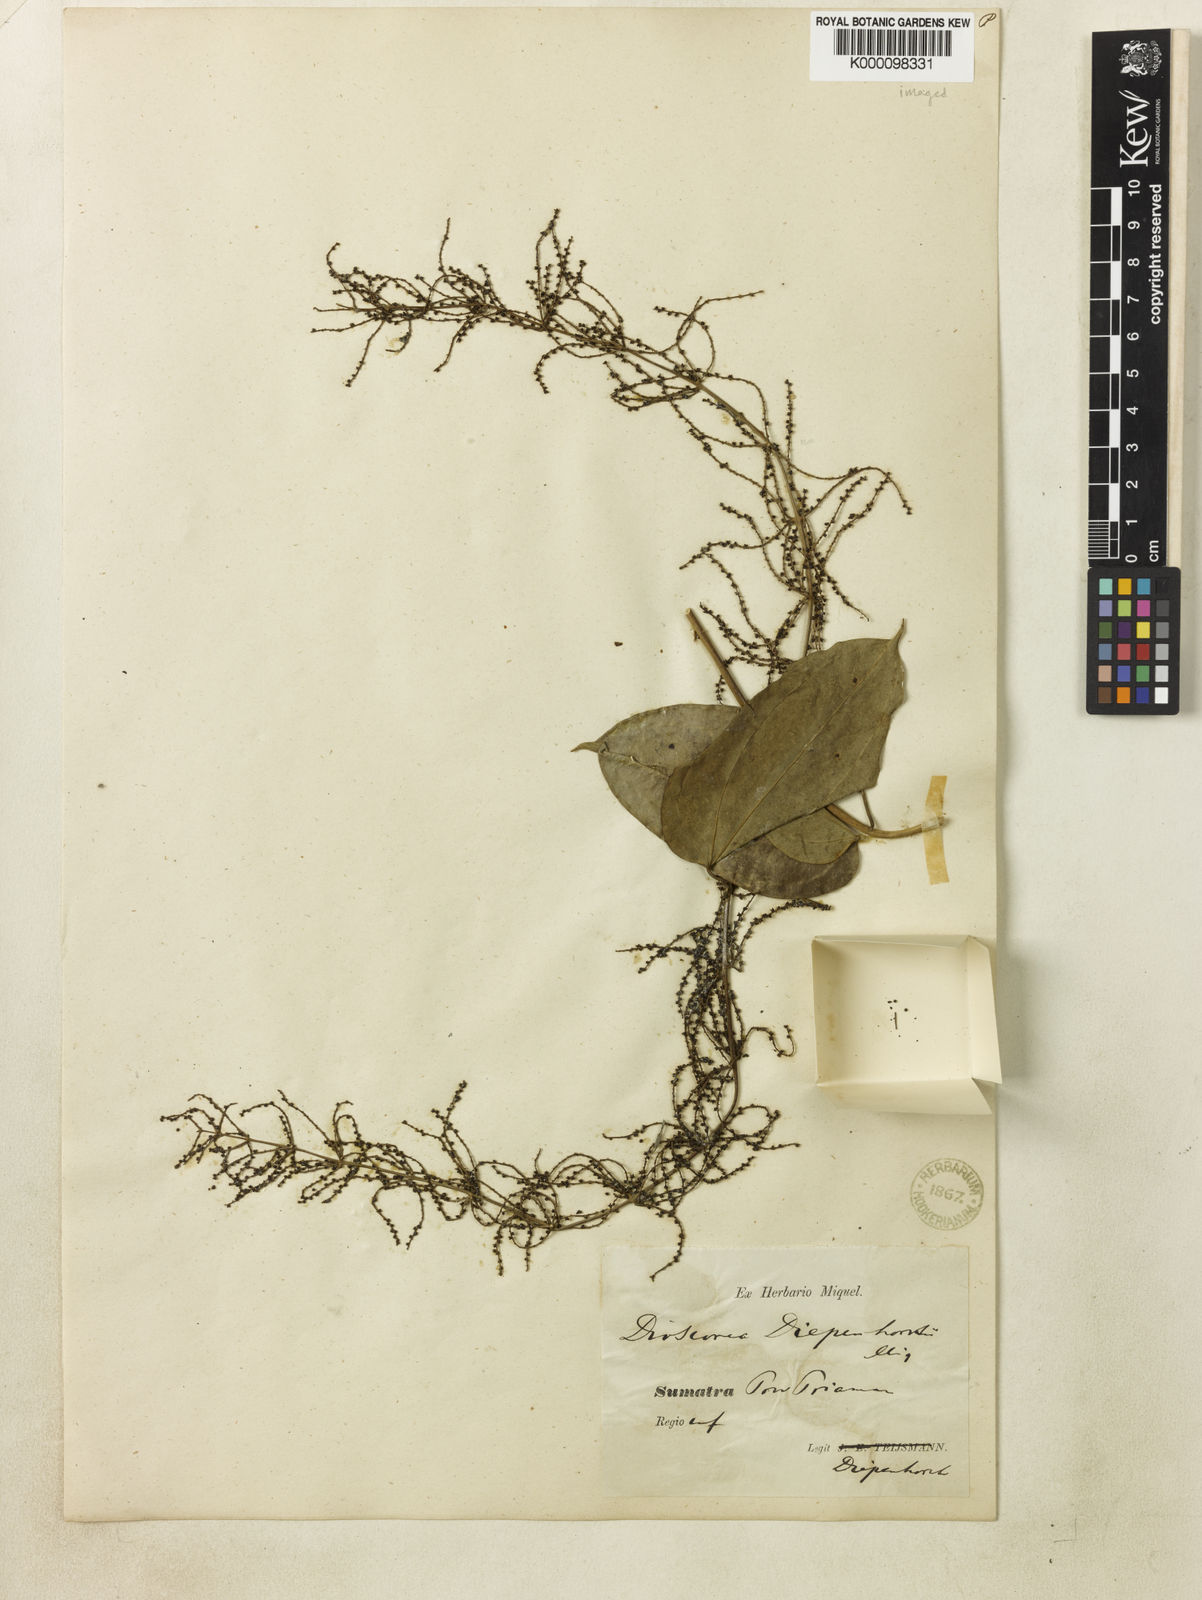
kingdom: Plantae
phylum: Tracheophyta
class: Liliopsida
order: Dioscoreales
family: Dioscoreaceae
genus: Dioscorea
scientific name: Dioscorea pyrifolia
